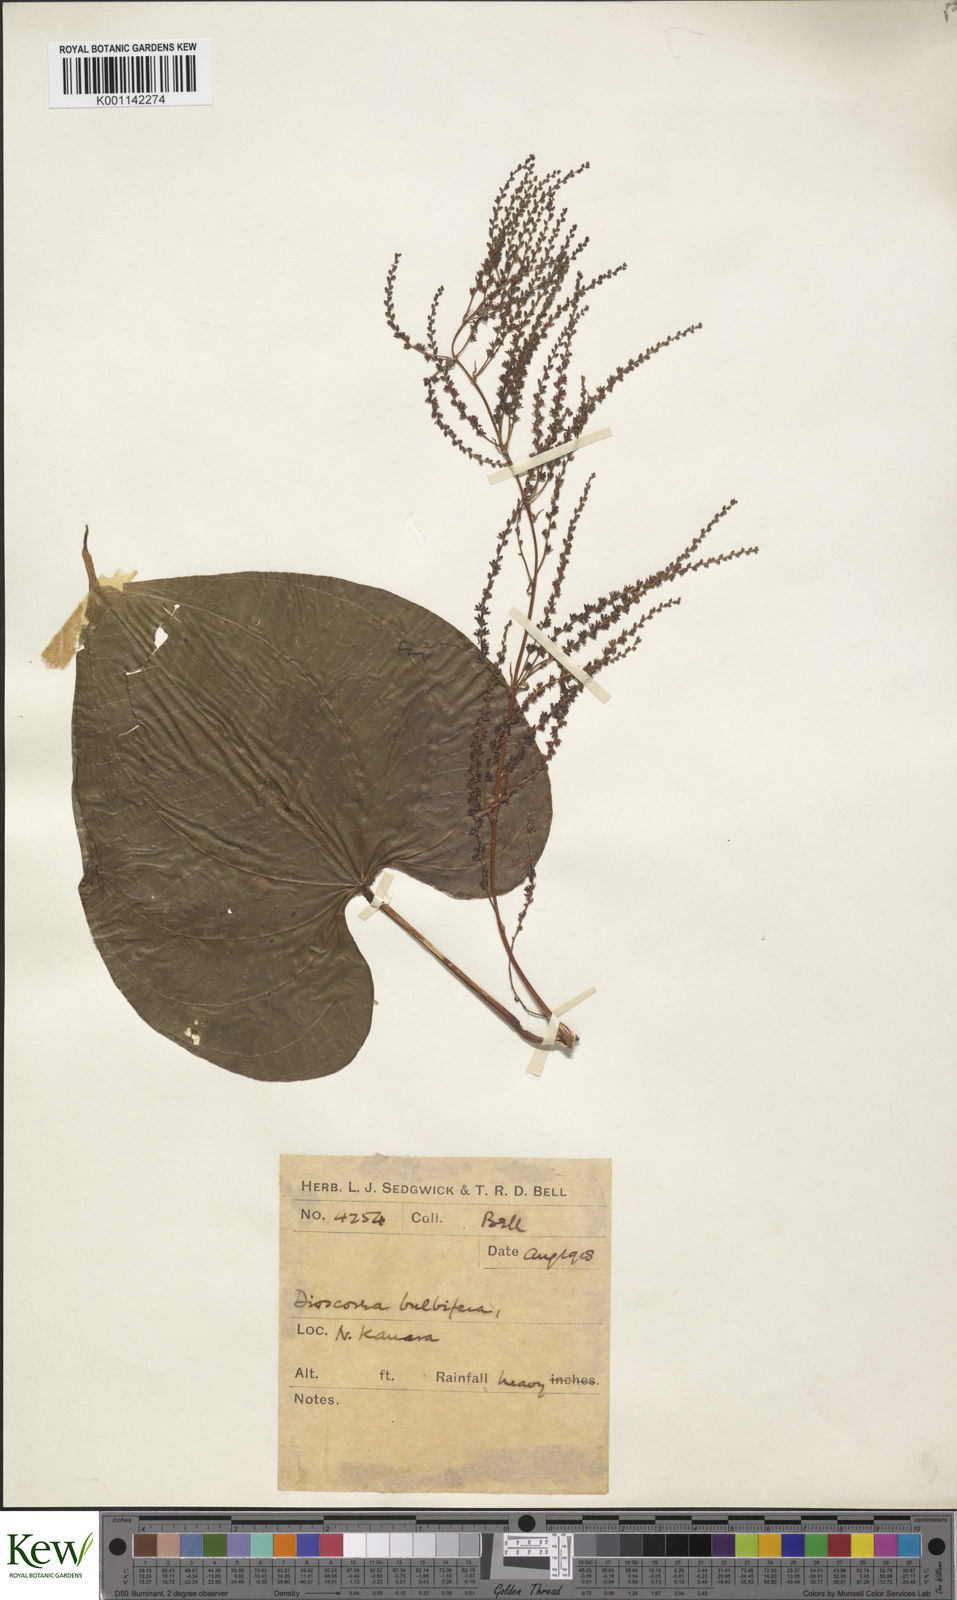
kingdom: Plantae
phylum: Tracheophyta
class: Liliopsida
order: Dioscoreales
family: Dioscoreaceae
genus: Dioscorea
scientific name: Dioscorea bulbifera
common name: Air yam
